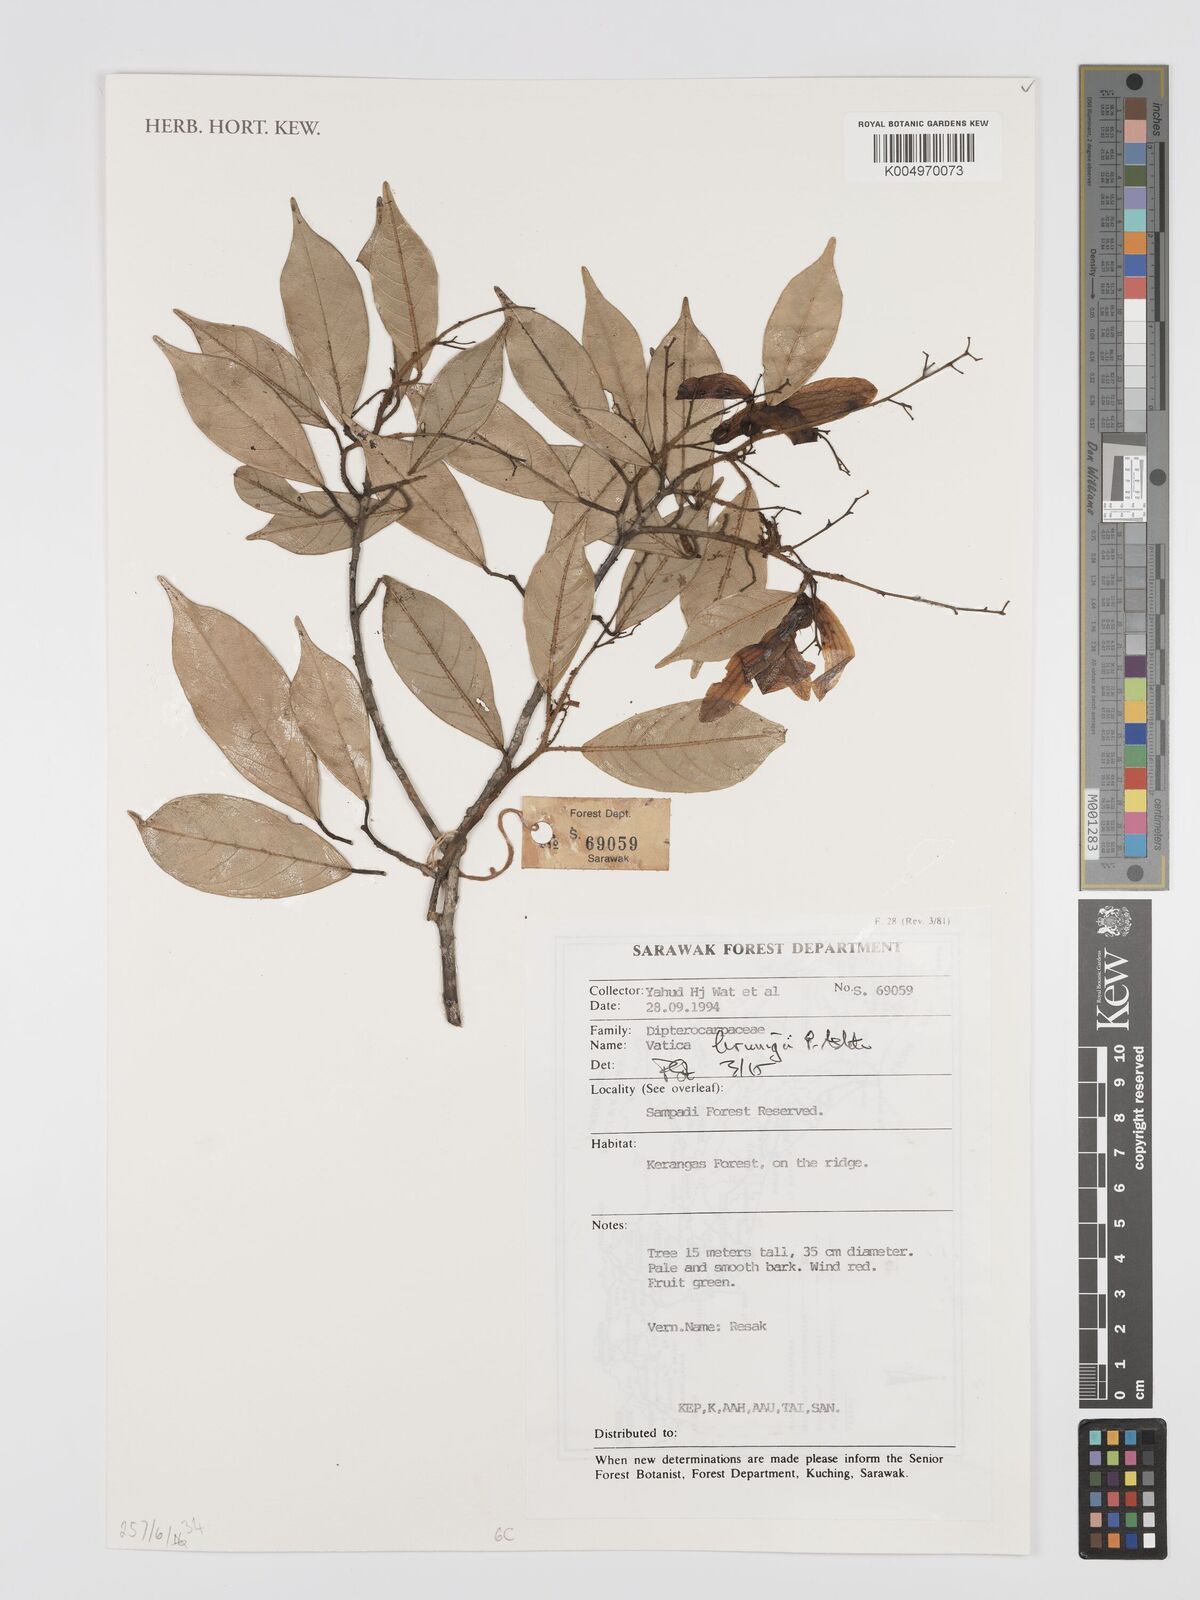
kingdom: Plantae
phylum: Tracheophyta
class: Magnoliopsida
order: Malvales
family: Dipterocarpaceae
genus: Vatica
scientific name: Vatica brunigii
